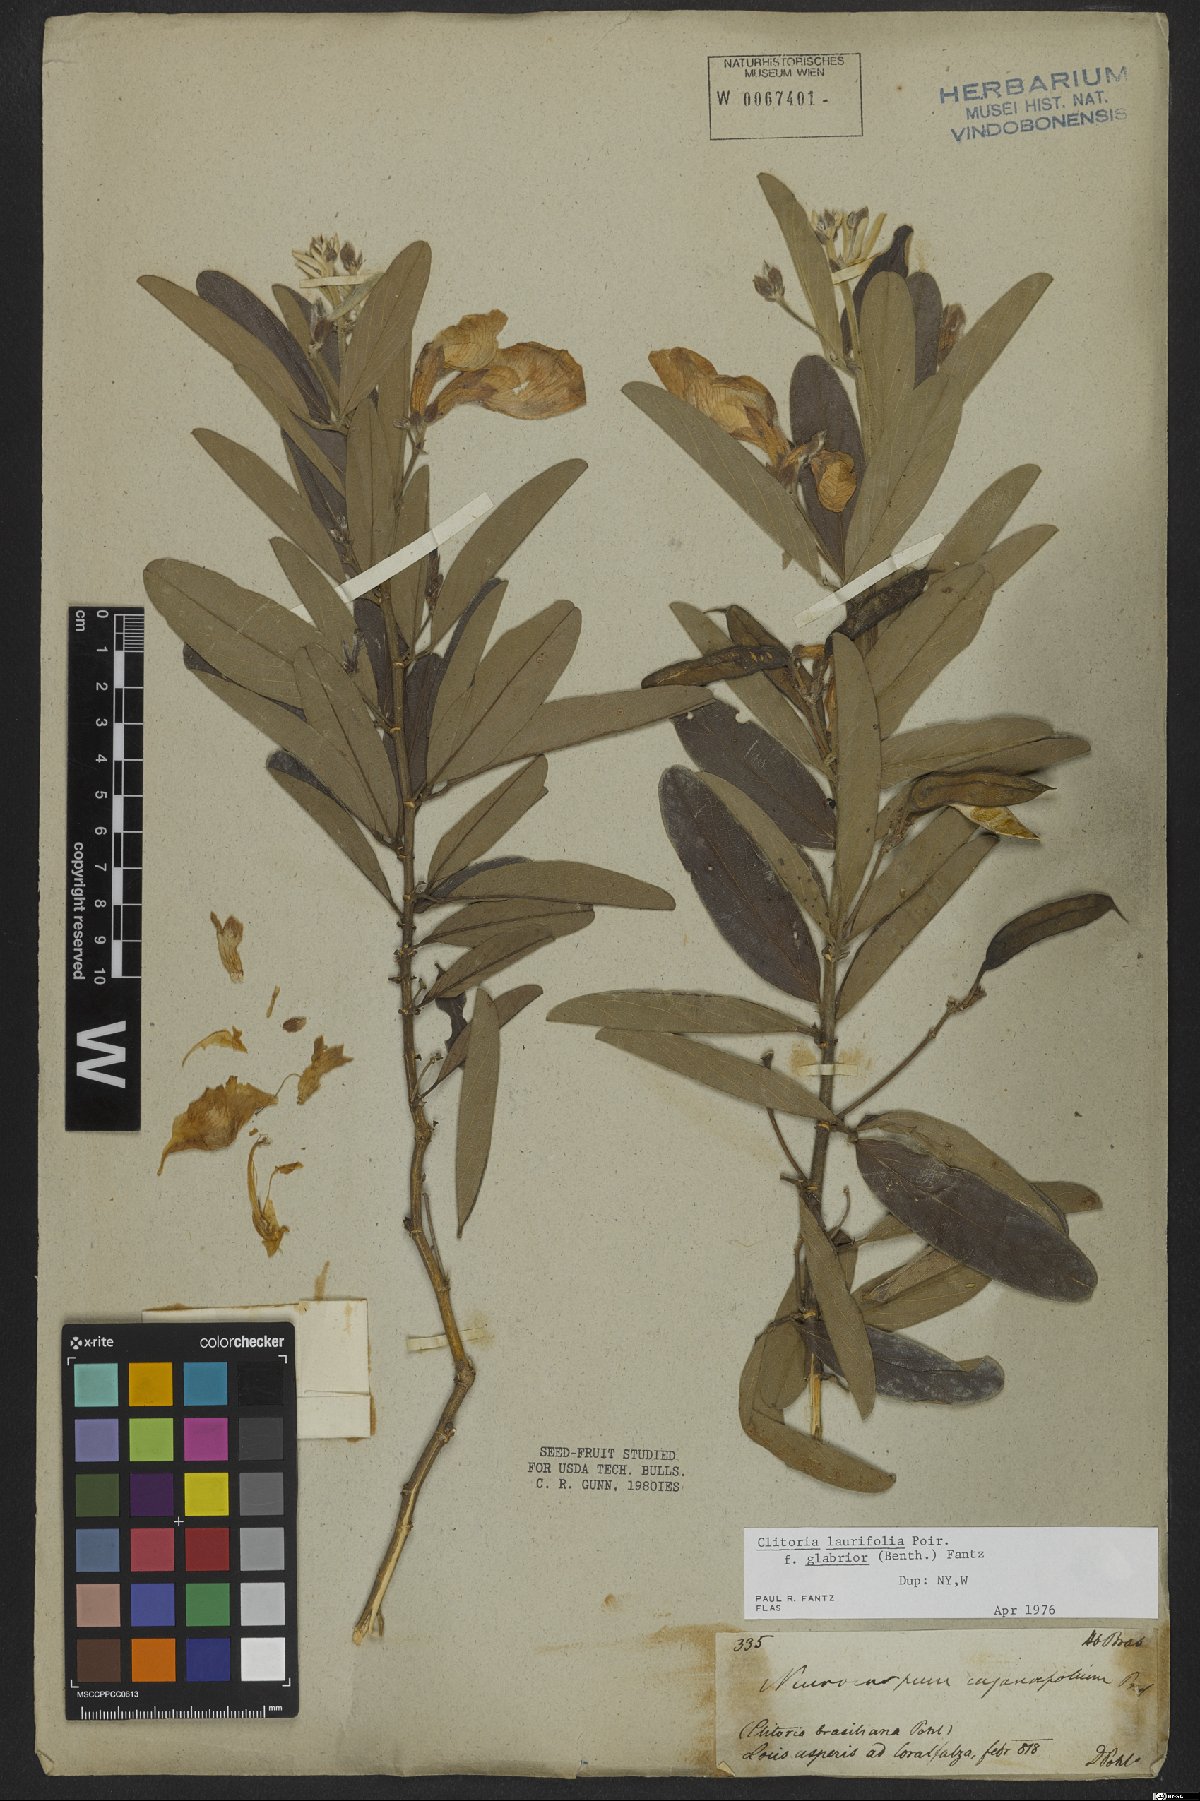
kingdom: Plantae
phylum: Tracheophyta
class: Magnoliopsida
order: Fabales
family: Fabaceae
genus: Clitoria
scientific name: Clitoria laurifolia
